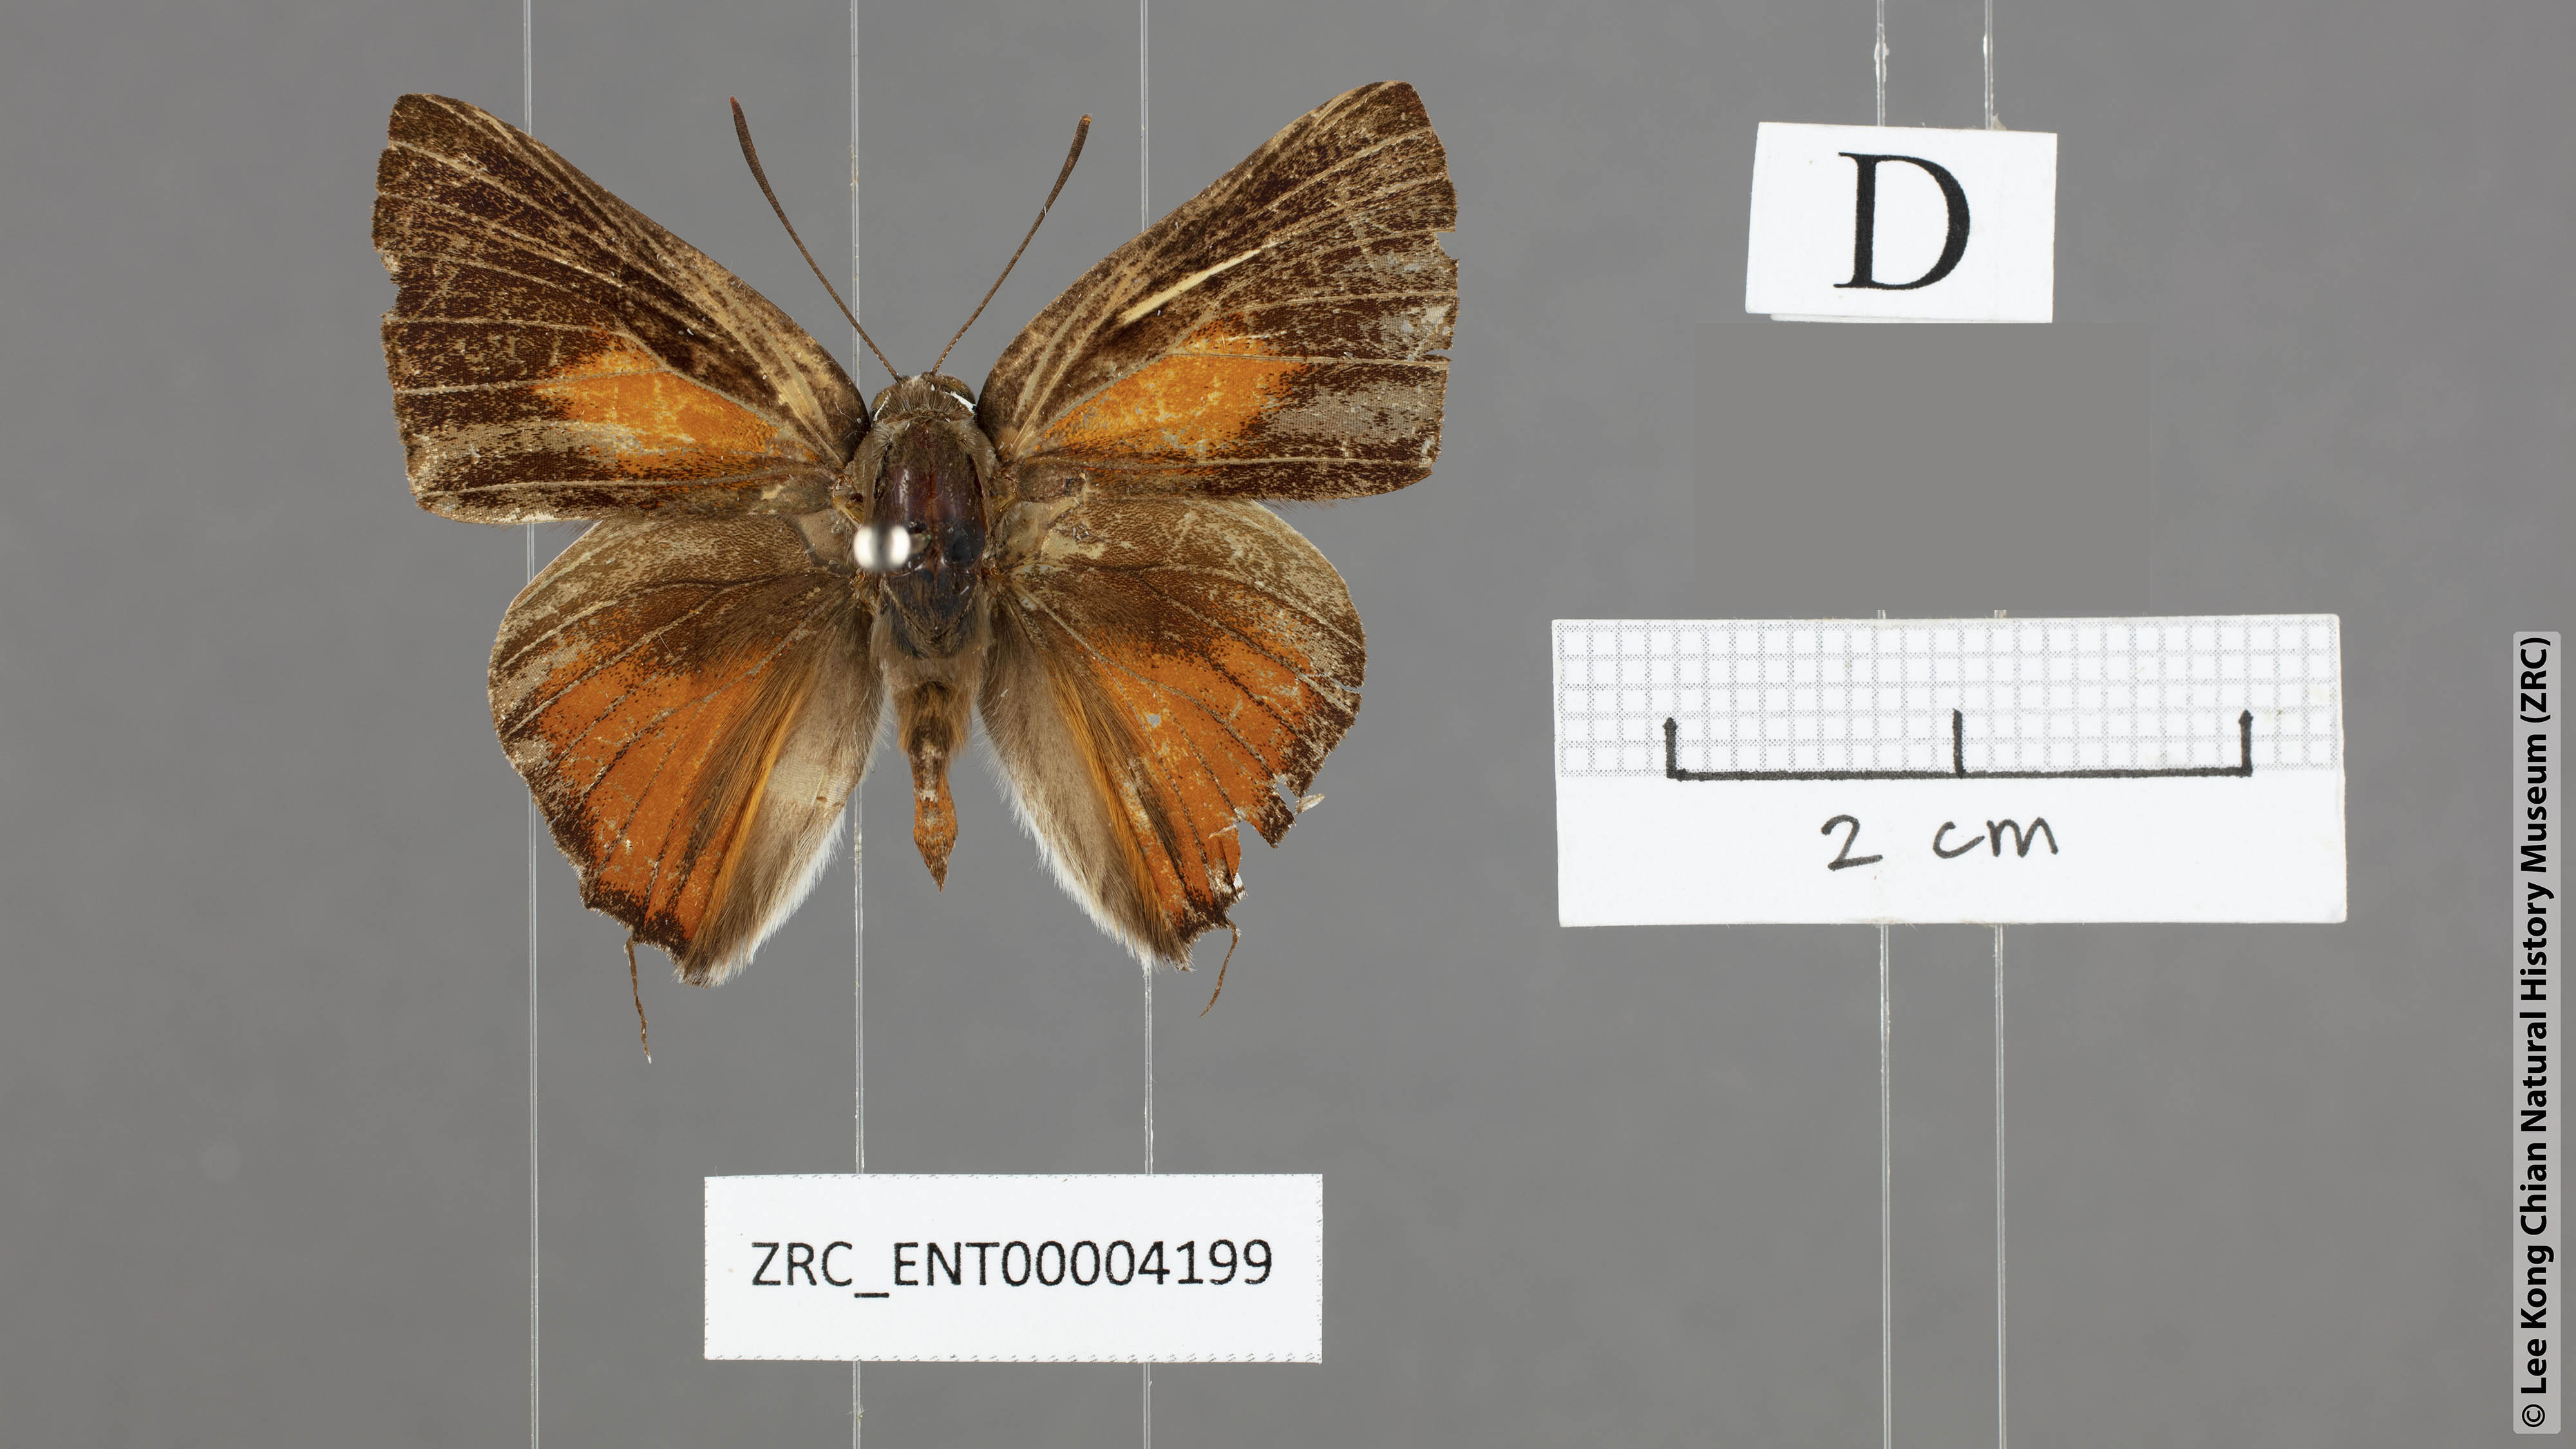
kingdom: Animalia
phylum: Arthropoda
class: Insecta
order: Lepidoptera
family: Lycaenidae
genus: Deudorix
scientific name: Deudorix
